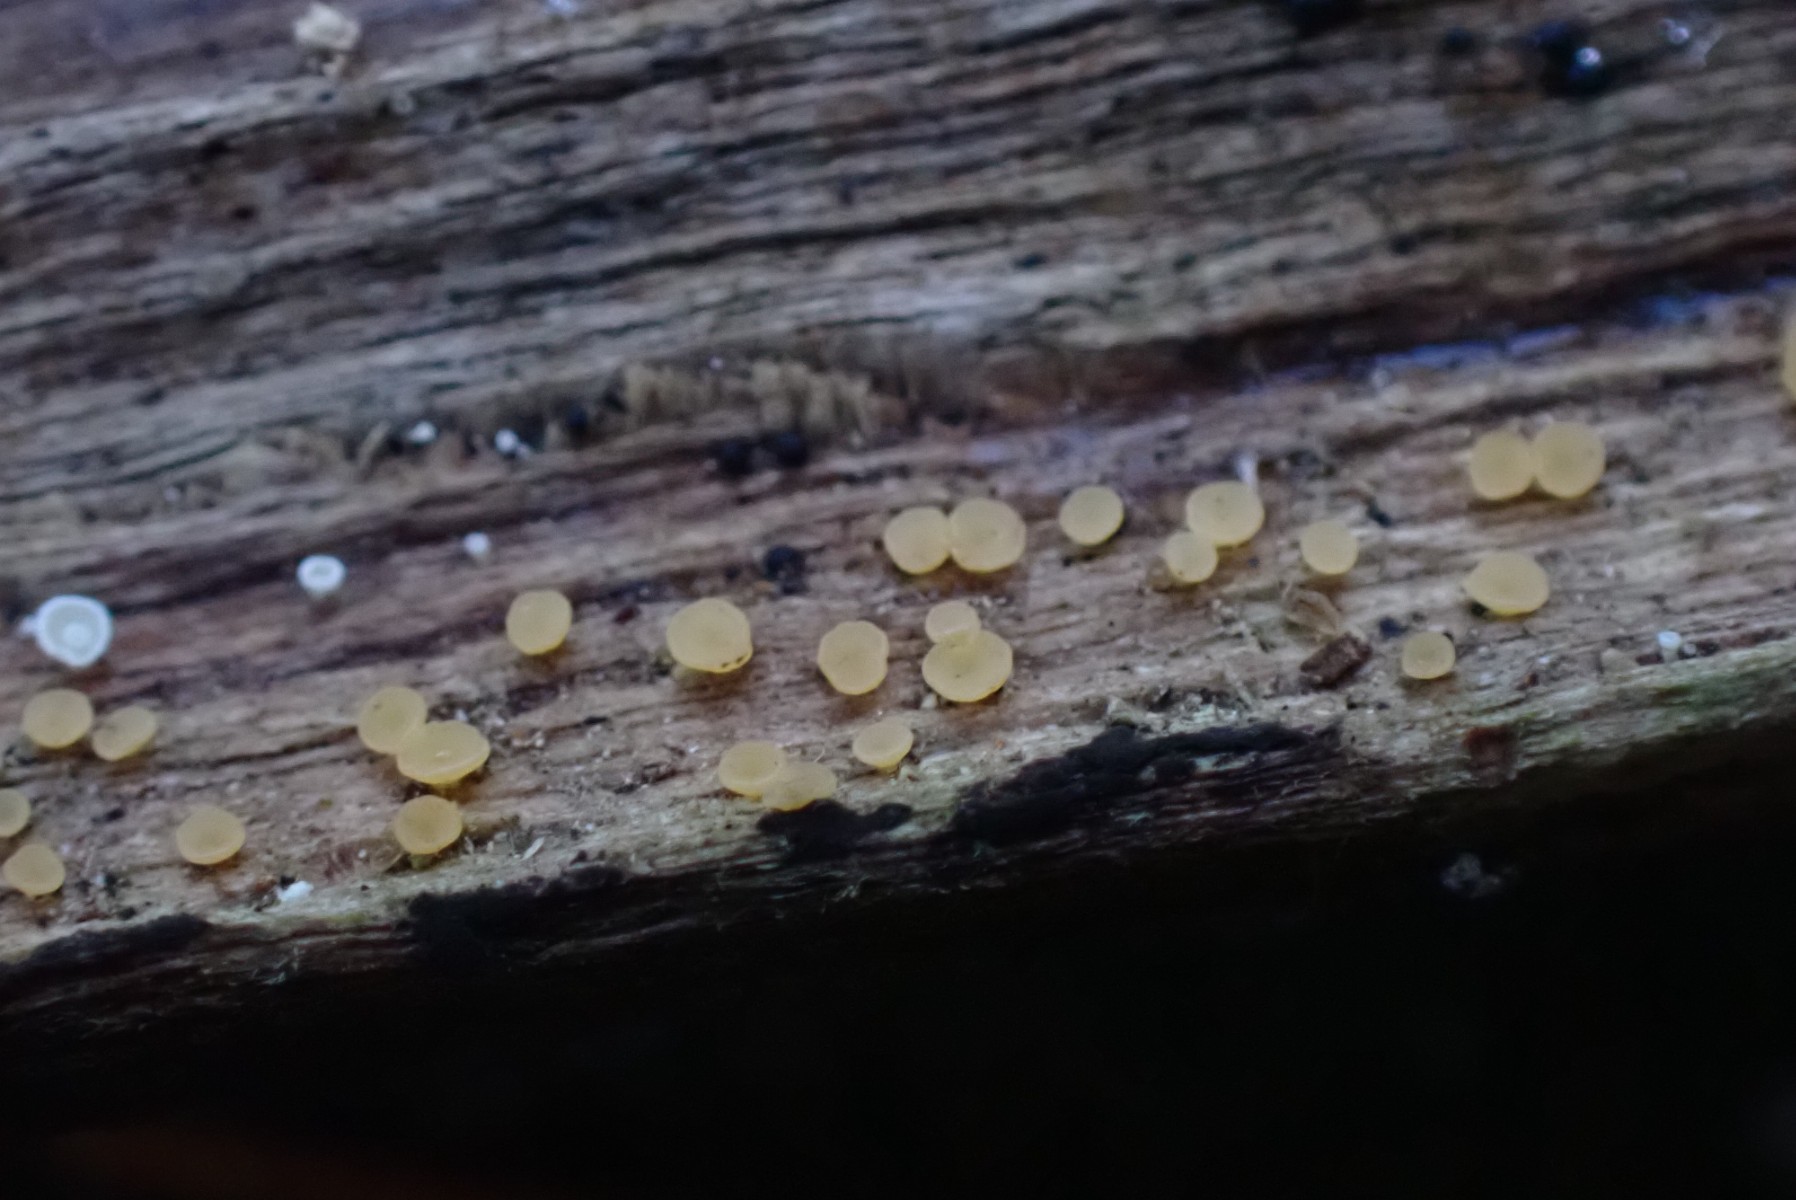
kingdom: Fungi
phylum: Ascomycota
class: Leotiomycetes
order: Helotiales
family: Helotiaceae
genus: Bisporella
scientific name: Bisporella subpallida
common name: lys snitskive
